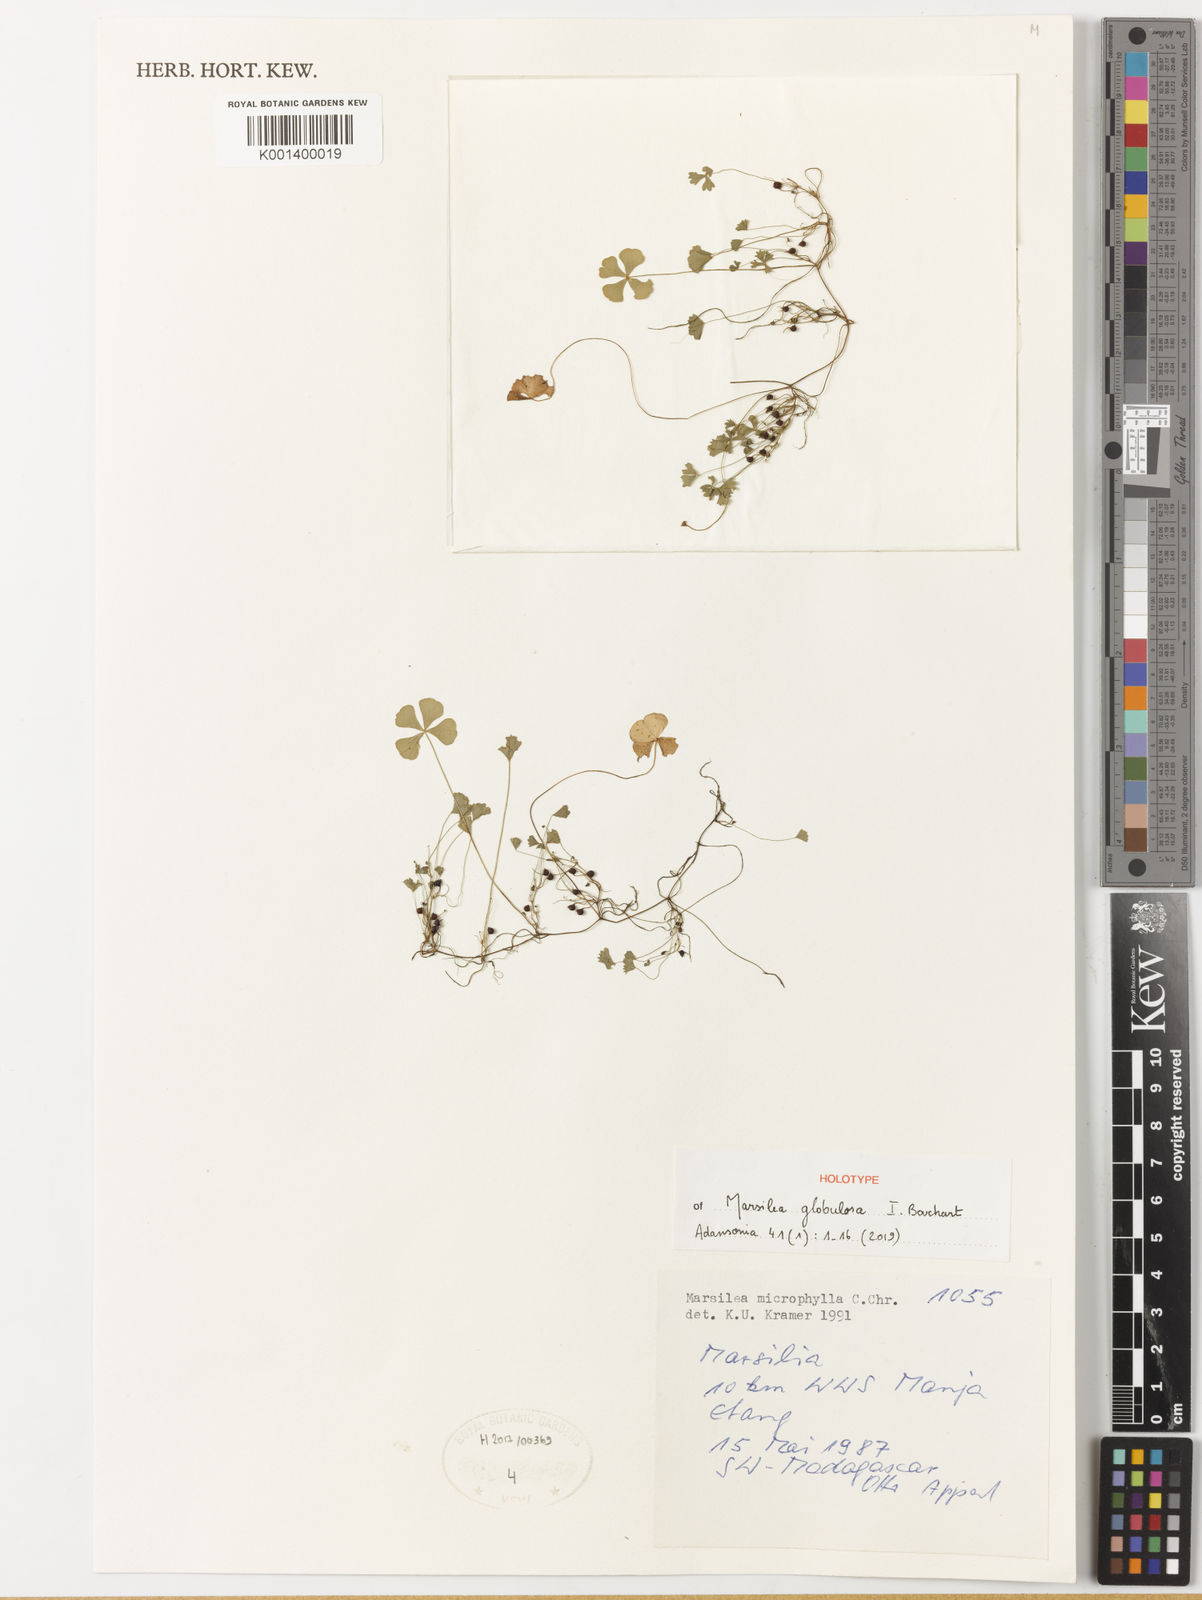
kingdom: Plantae
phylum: Tracheophyta
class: Polypodiopsida
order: Salviniales
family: Marsileaceae
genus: Marsilea
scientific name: Marsilea
